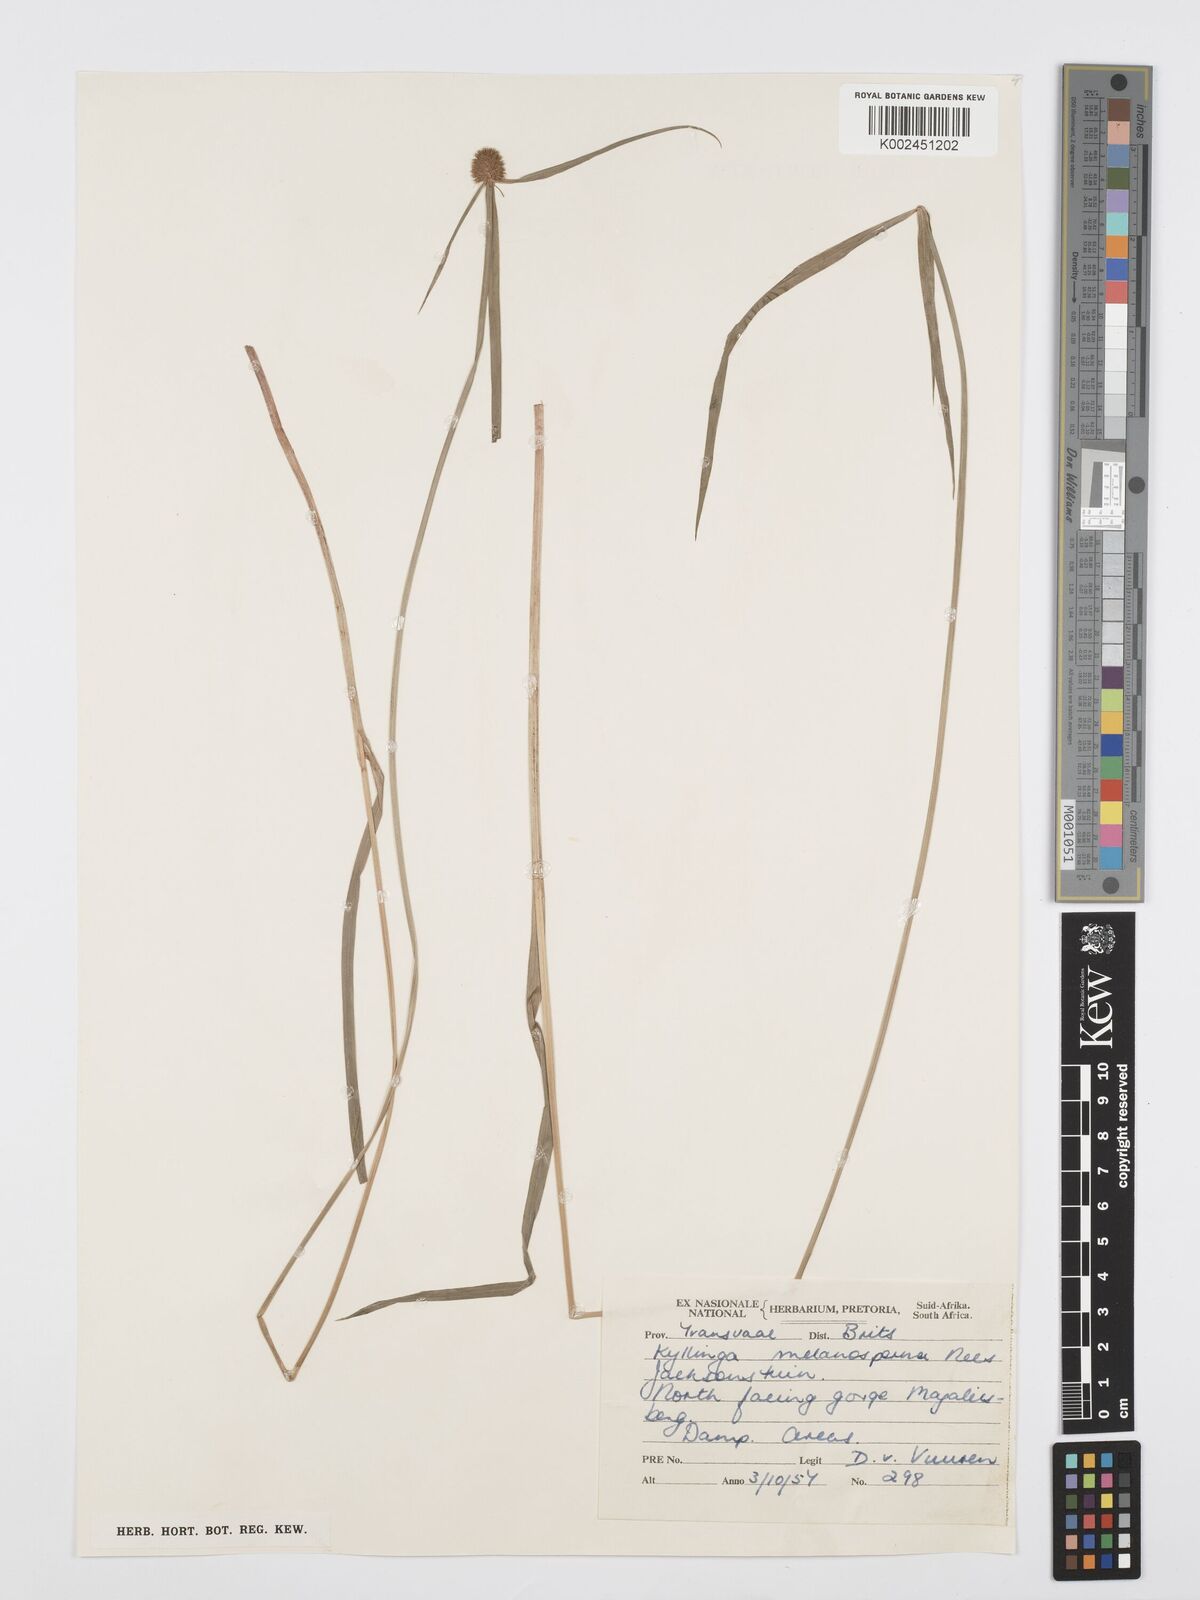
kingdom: Plantae
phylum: Tracheophyta
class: Liliopsida
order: Poales
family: Cyperaceae
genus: Cyperus
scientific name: Cyperus melanospermus
